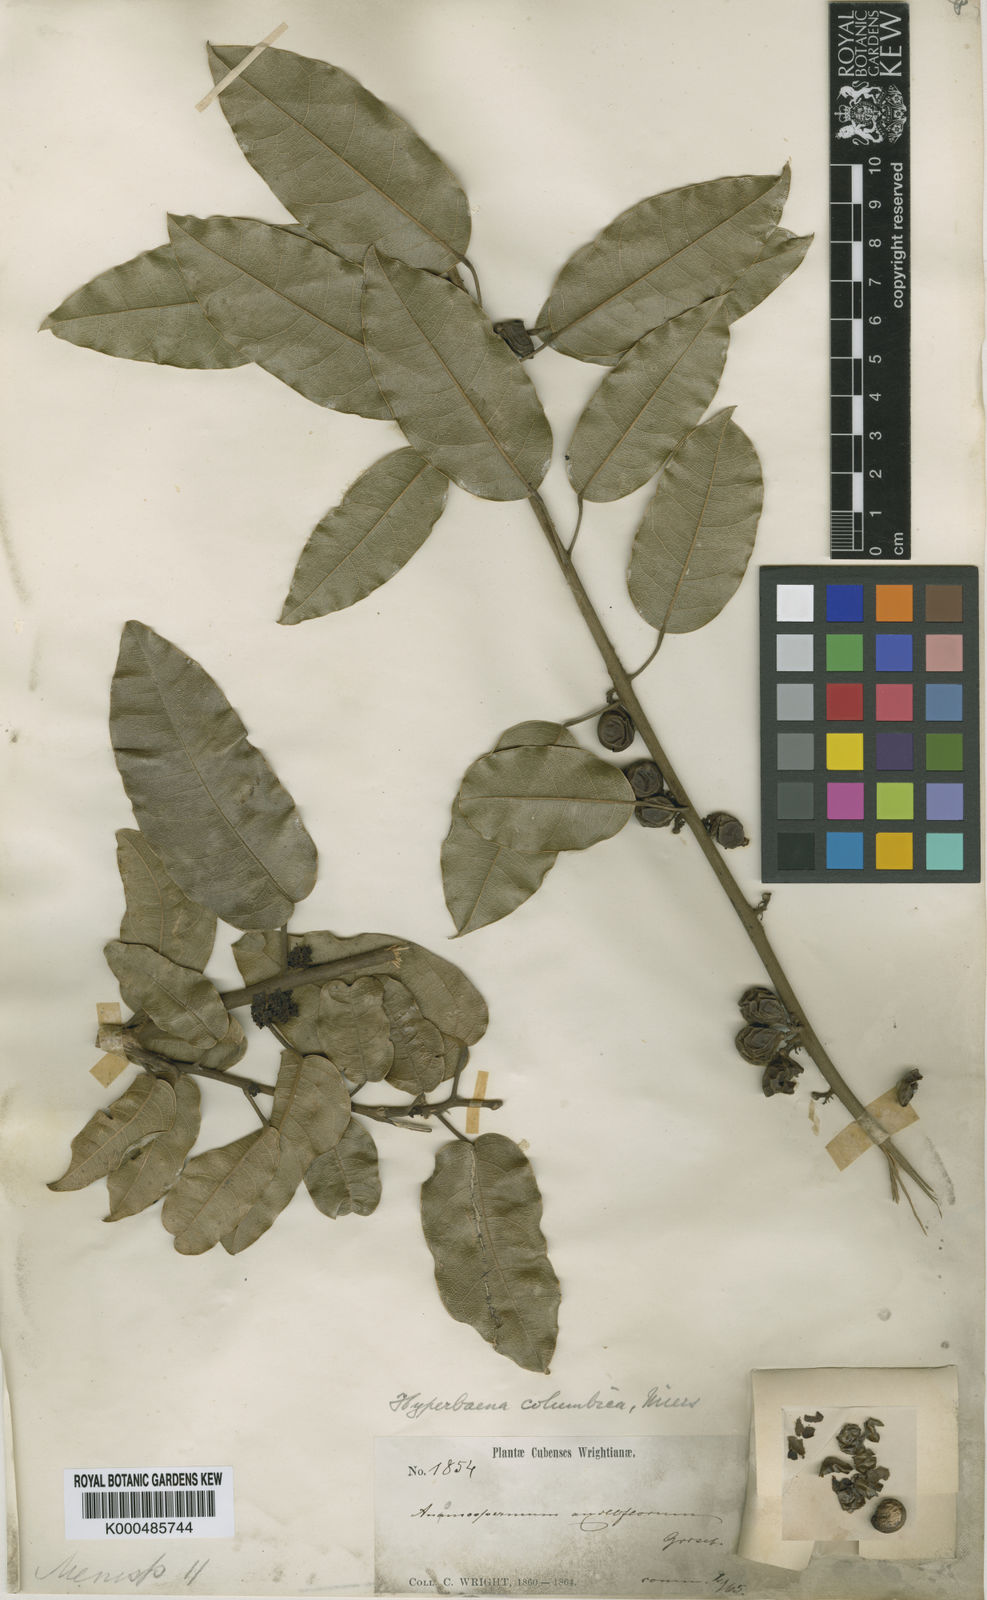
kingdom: Plantae
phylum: Tracheophyta
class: Magnoliopsida
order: Ranunculales
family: Menispermaceae
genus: Hyperbaena
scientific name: Hyperbaena columbica
